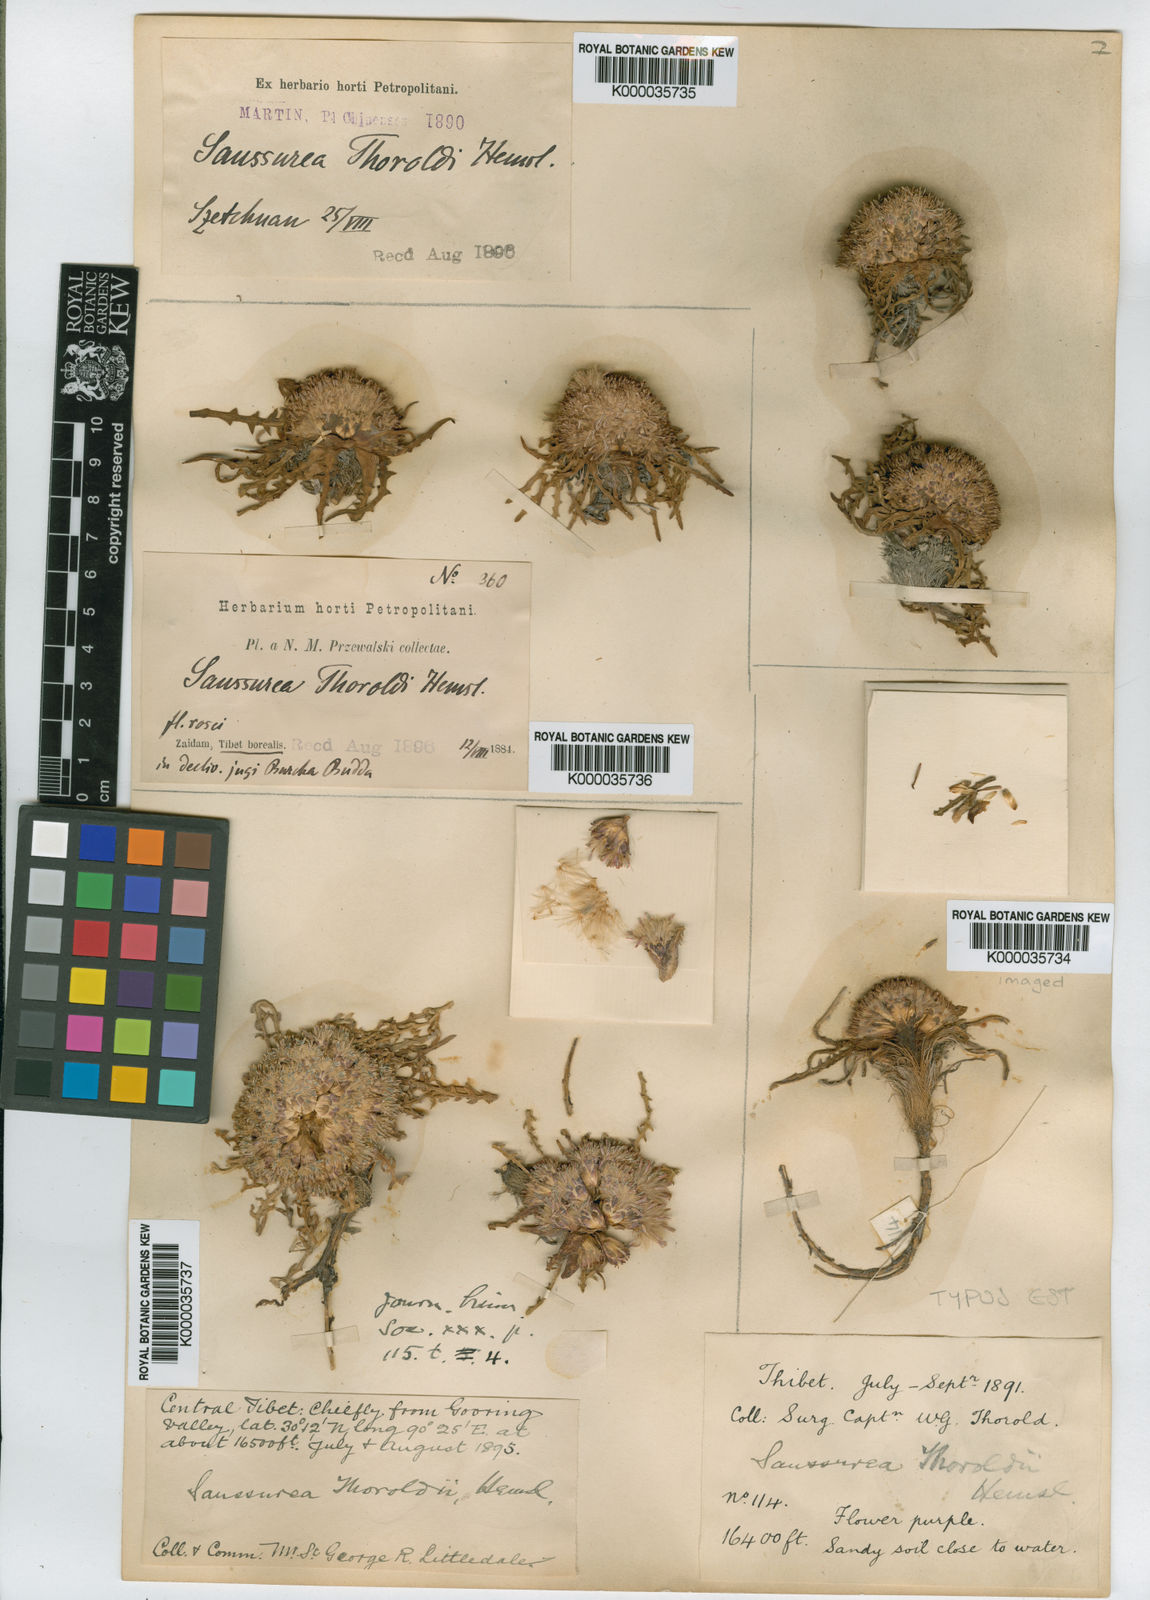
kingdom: Plantae
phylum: Tracheophyta
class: Magnoliopsida
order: Asterales
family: Asteraceae
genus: Saussurea
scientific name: Saussurea thoroldii
